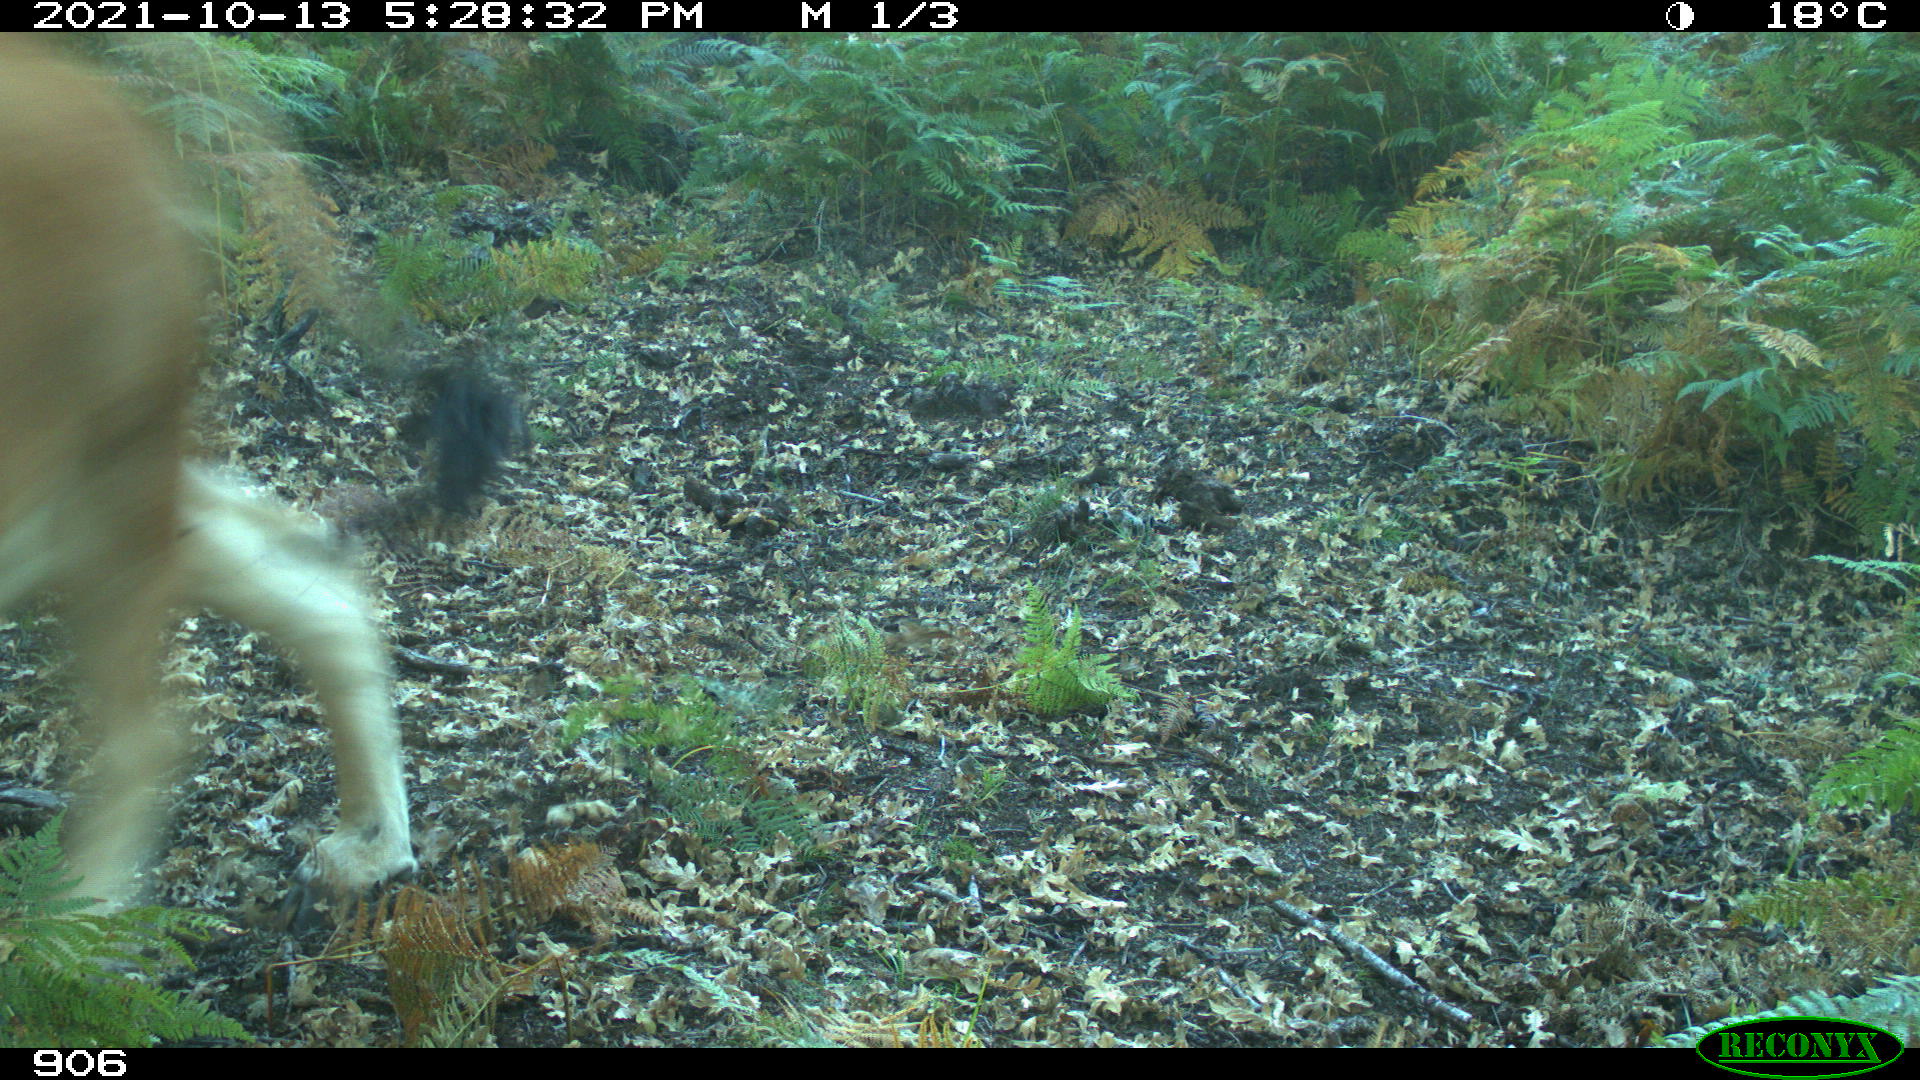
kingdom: Animalia
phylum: Chordata
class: Mammalia
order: Artiodactyla
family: Bovidae
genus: Bos
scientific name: Bos taurus
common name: Domesticated cattle
